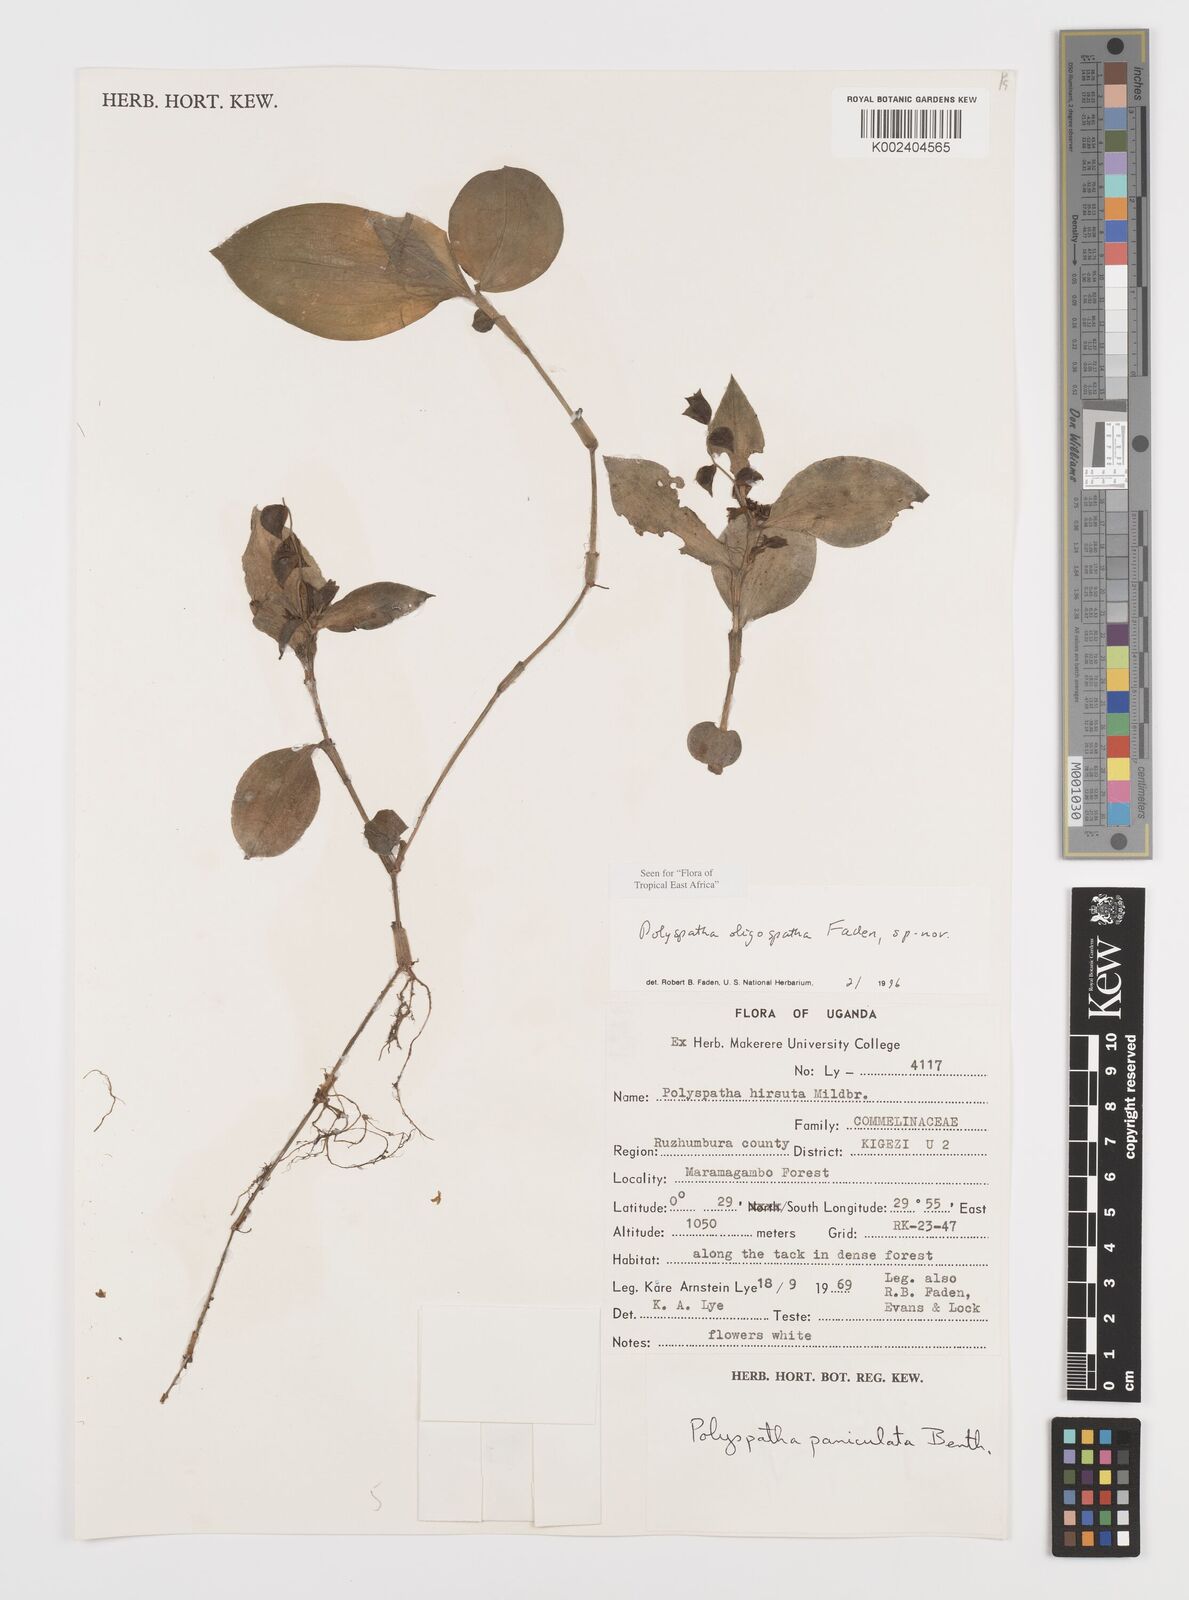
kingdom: Plantae
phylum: Tracheophyta
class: Liliopsida
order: Commelinales
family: Commelinaceae
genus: Polyspatha
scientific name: Polyspatha oligospatha
